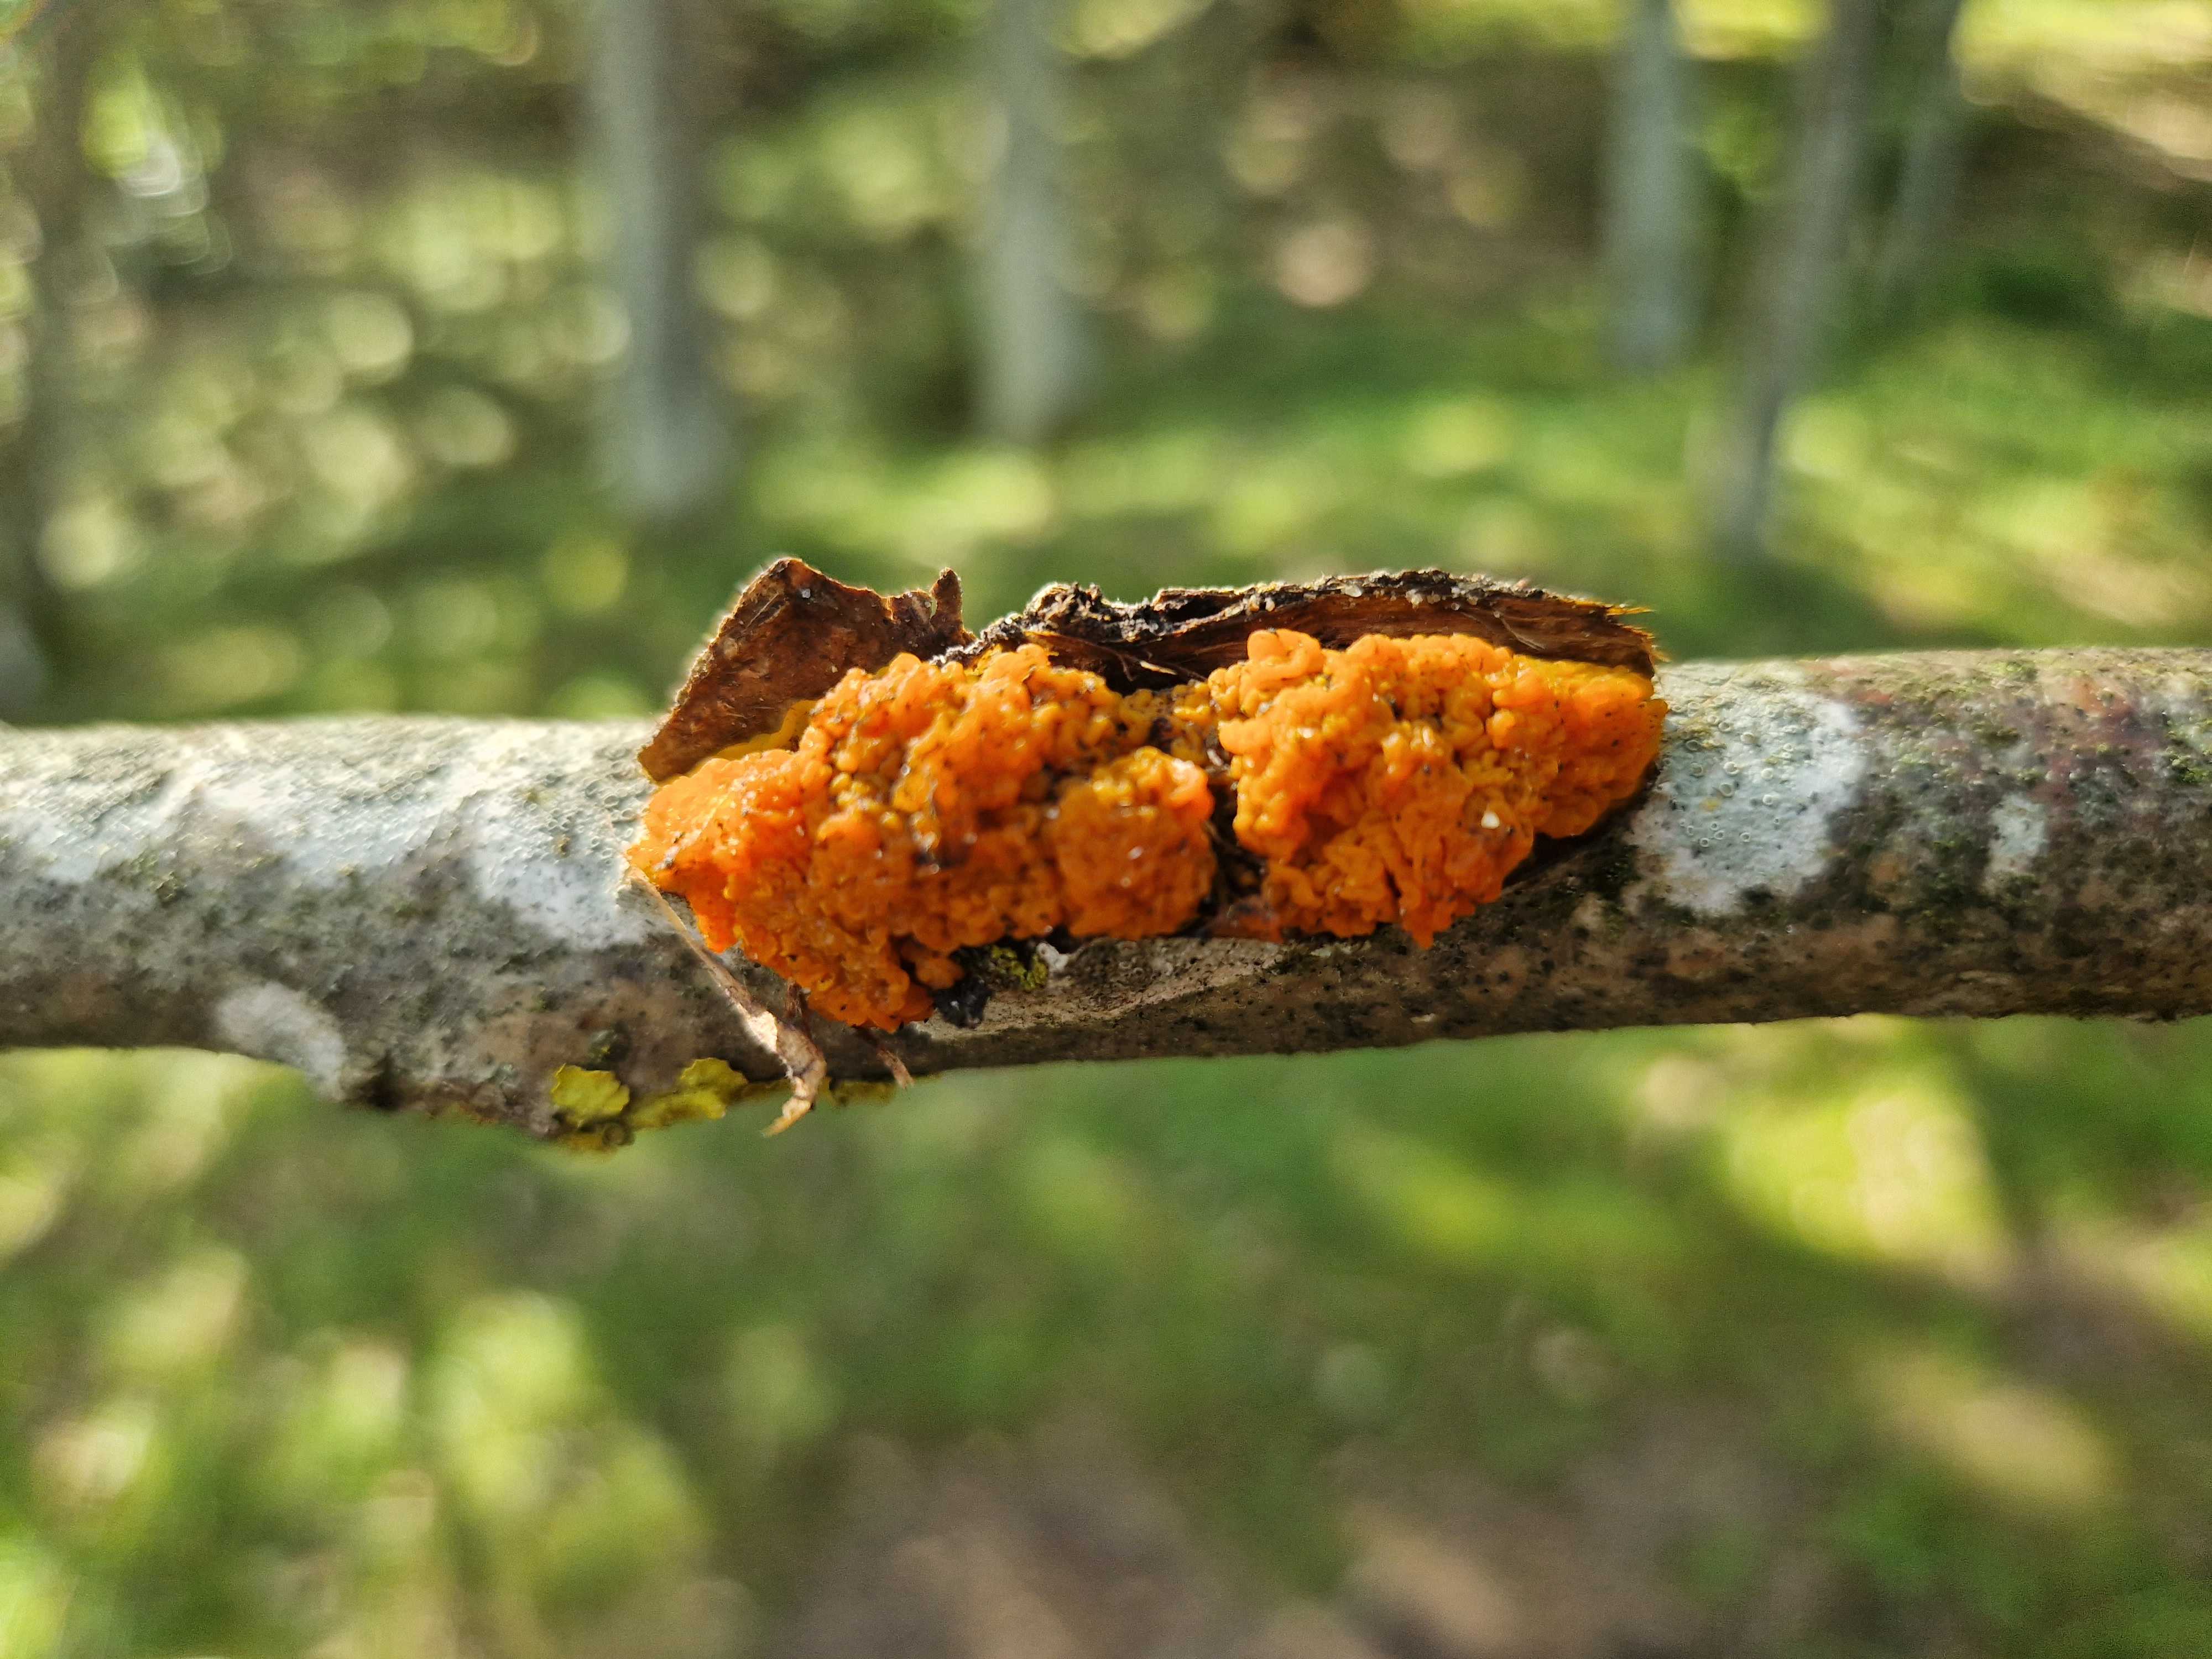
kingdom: Fungi
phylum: Basidiomycota
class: Tremellomycetes
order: Tremellales
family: Tremellaceae
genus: Tremella
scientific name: Tremella mesenterica
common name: gul bævresvamp
